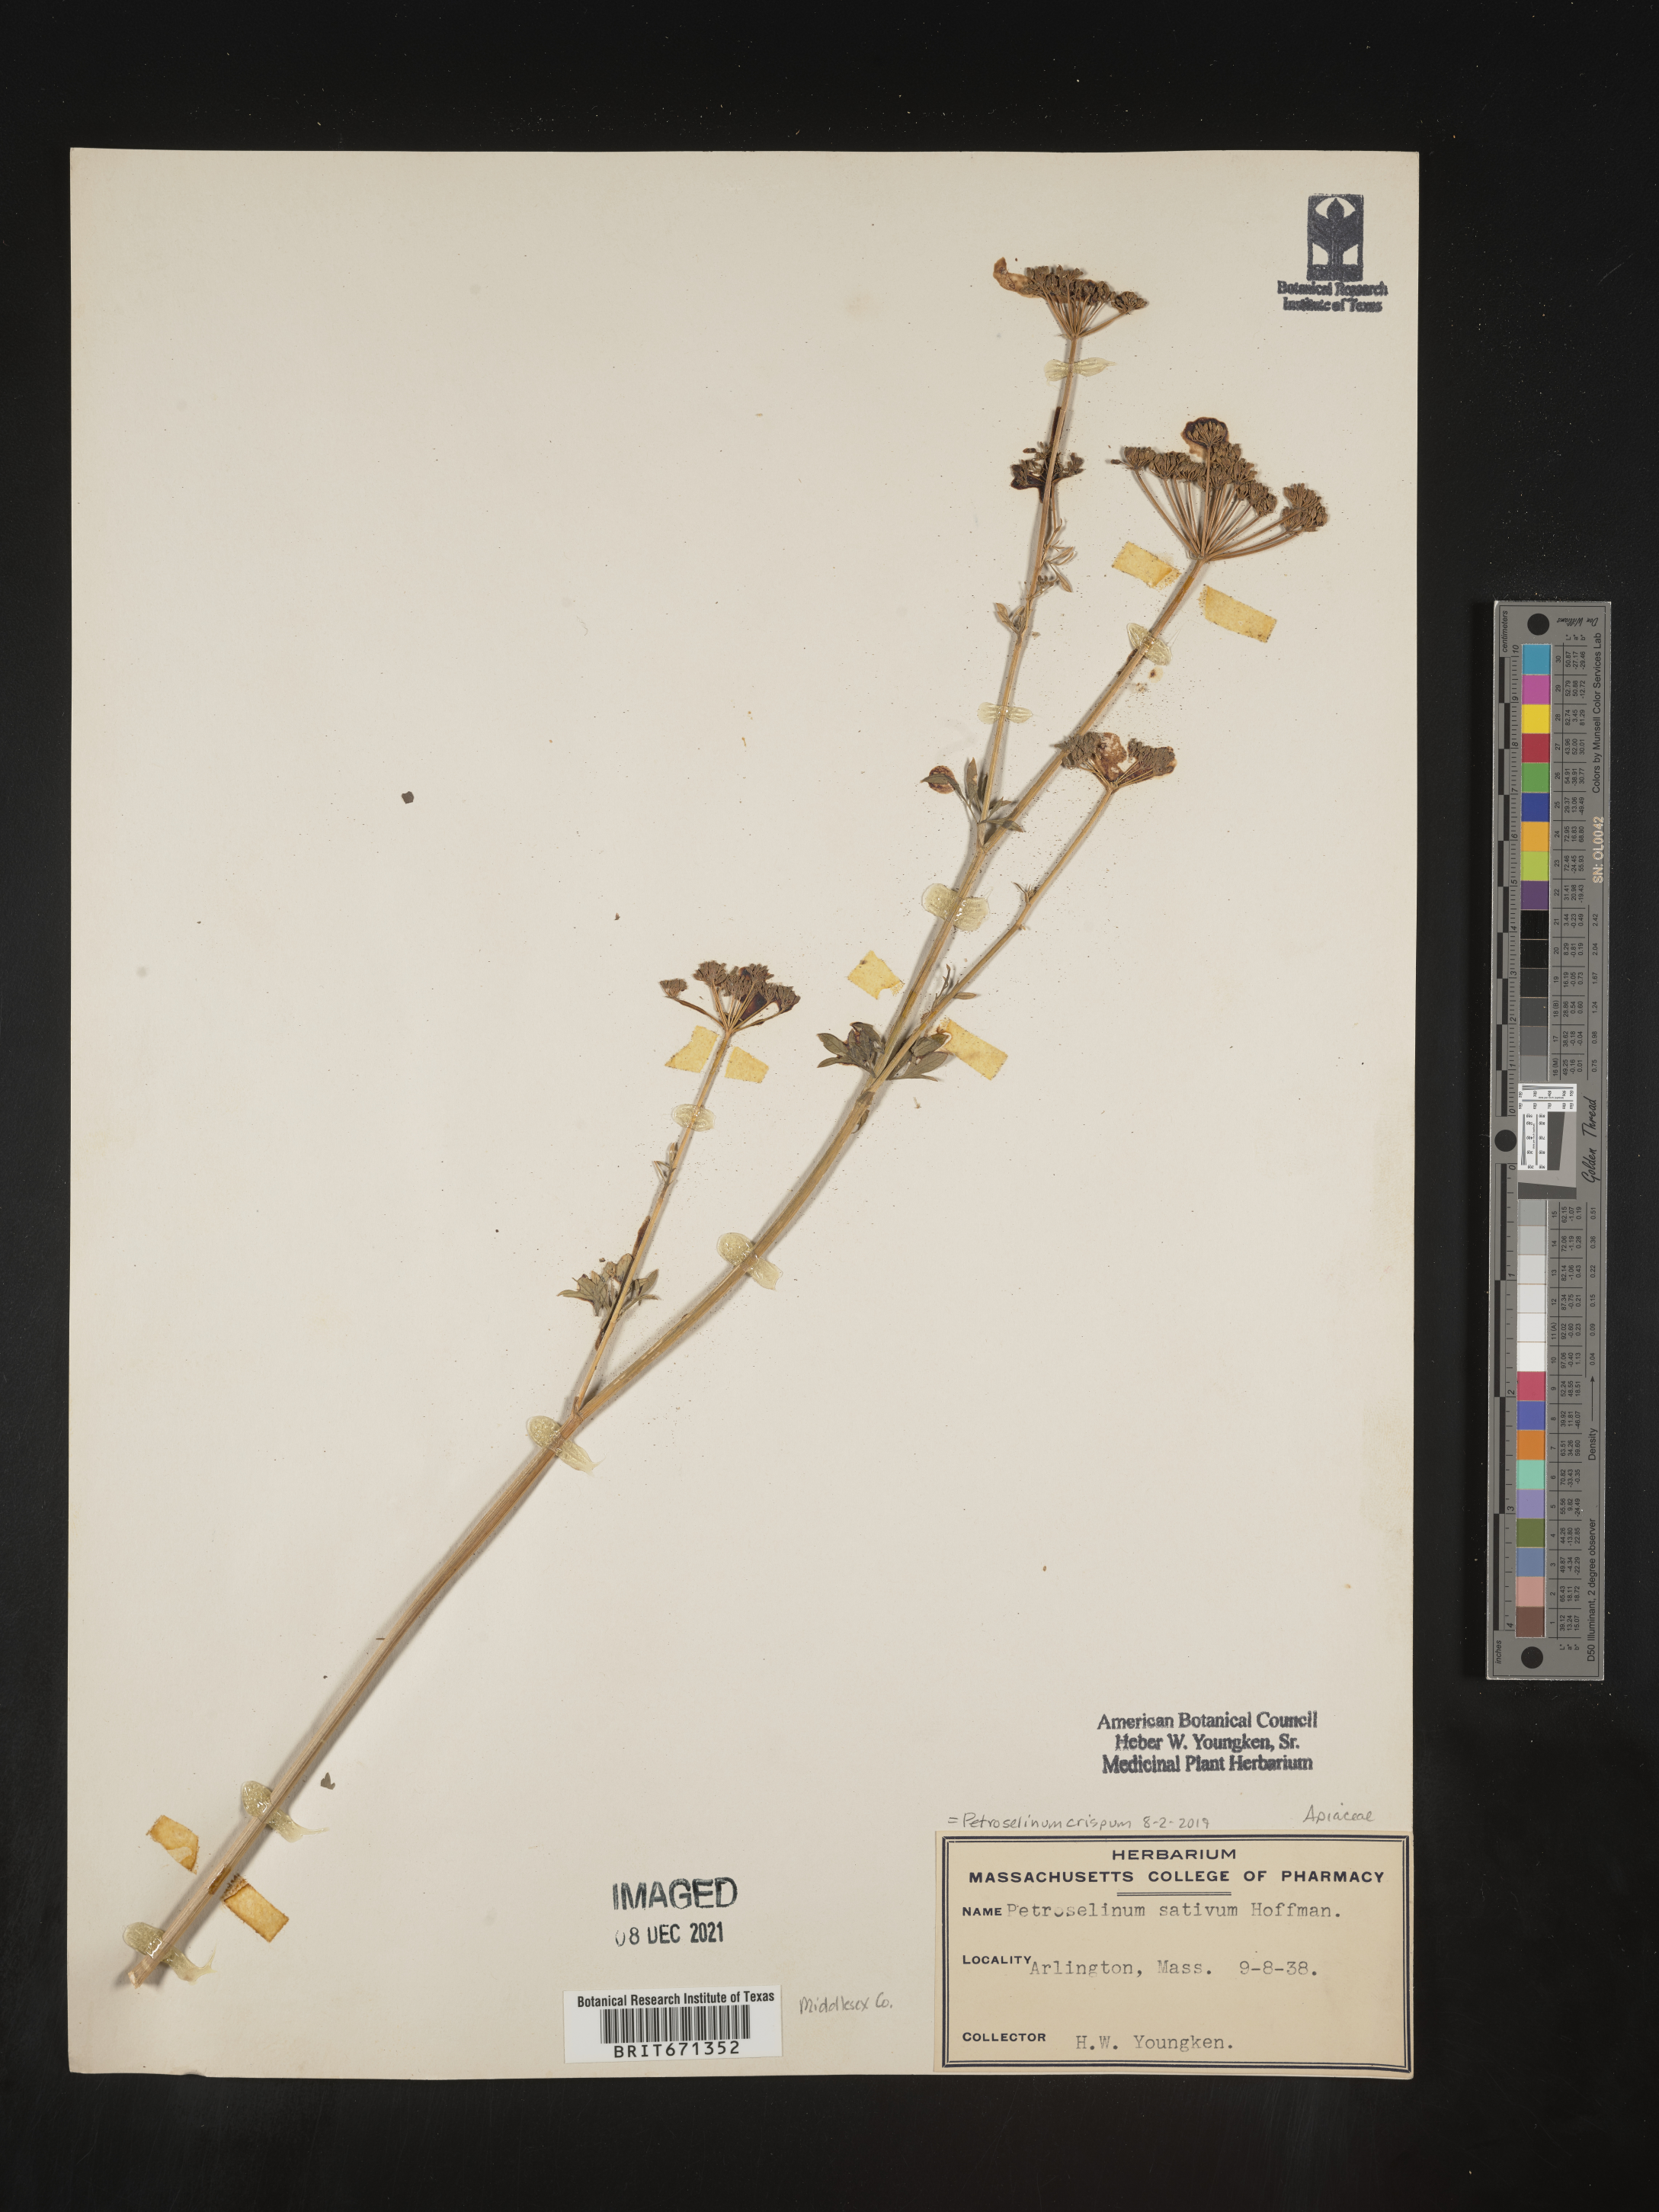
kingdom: Plantae
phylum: Tracheophyta
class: Magnoliopsida
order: Apiales
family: Apiaceae
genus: Petroselinum
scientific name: Petroselinum
